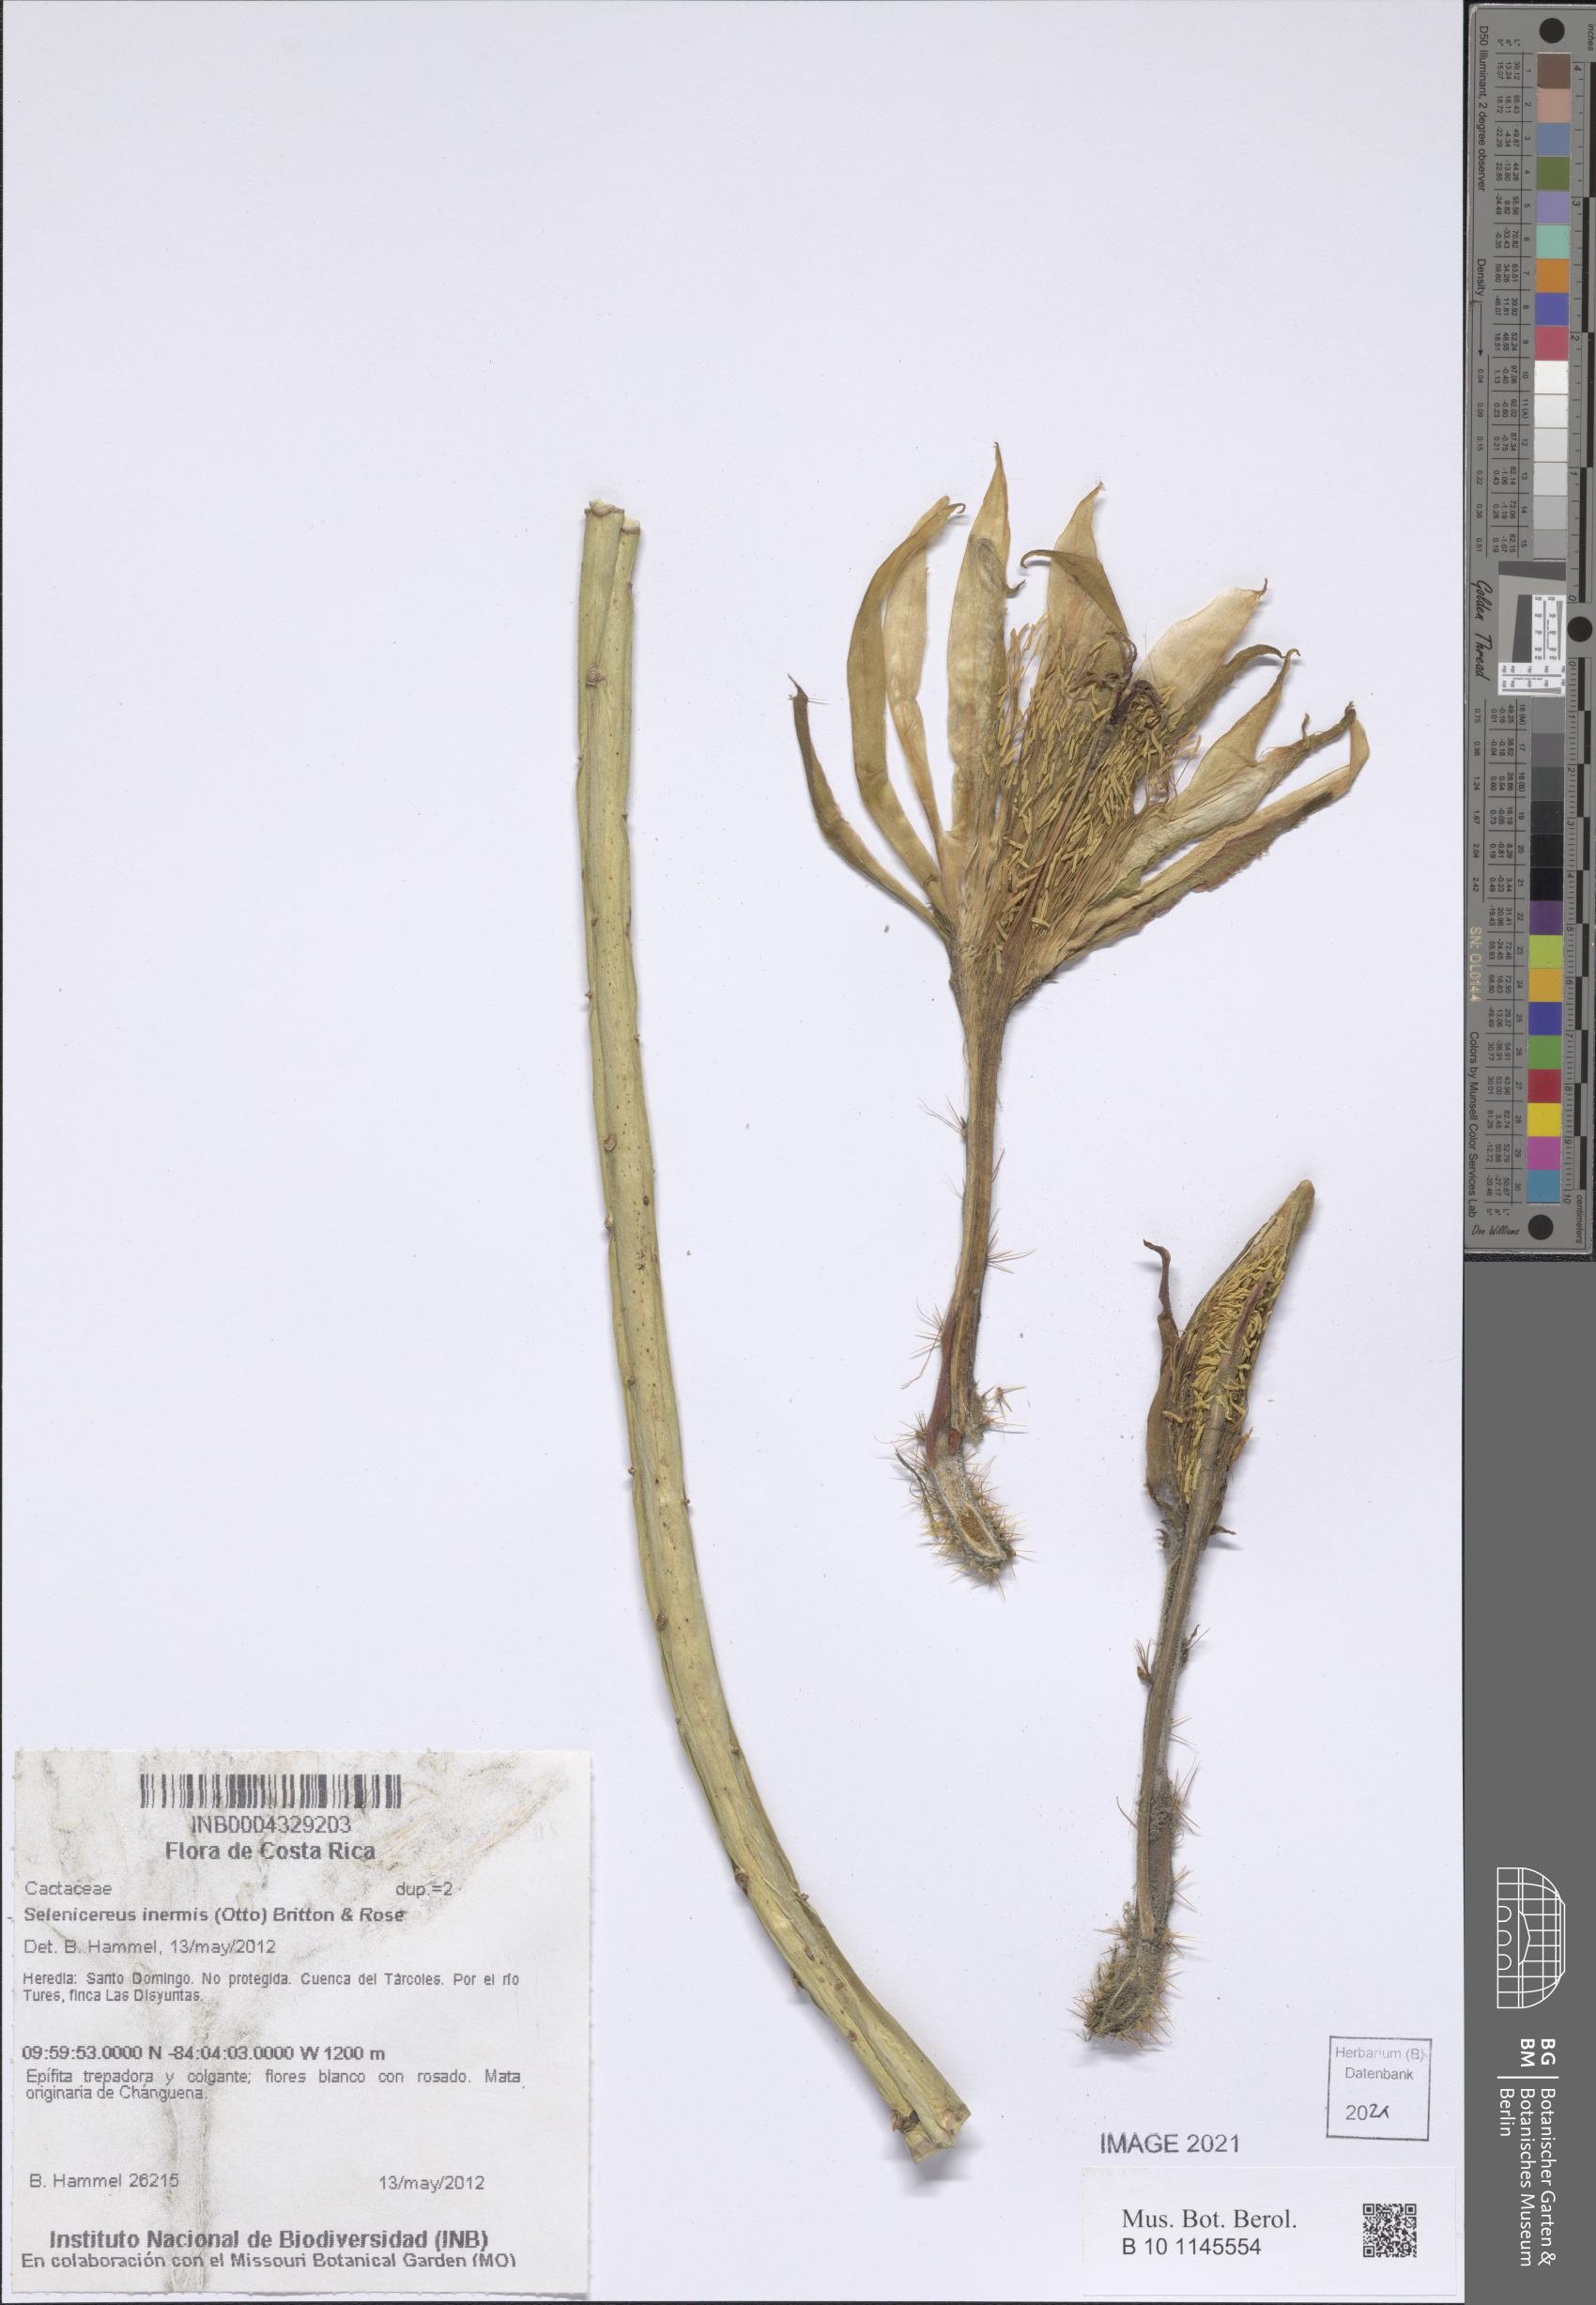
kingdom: Plantae
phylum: Tracheophyta
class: Magnoliopsida
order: Caryophyllales
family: Cactaceae
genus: Selenicereus
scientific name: Selenicereus inermis
